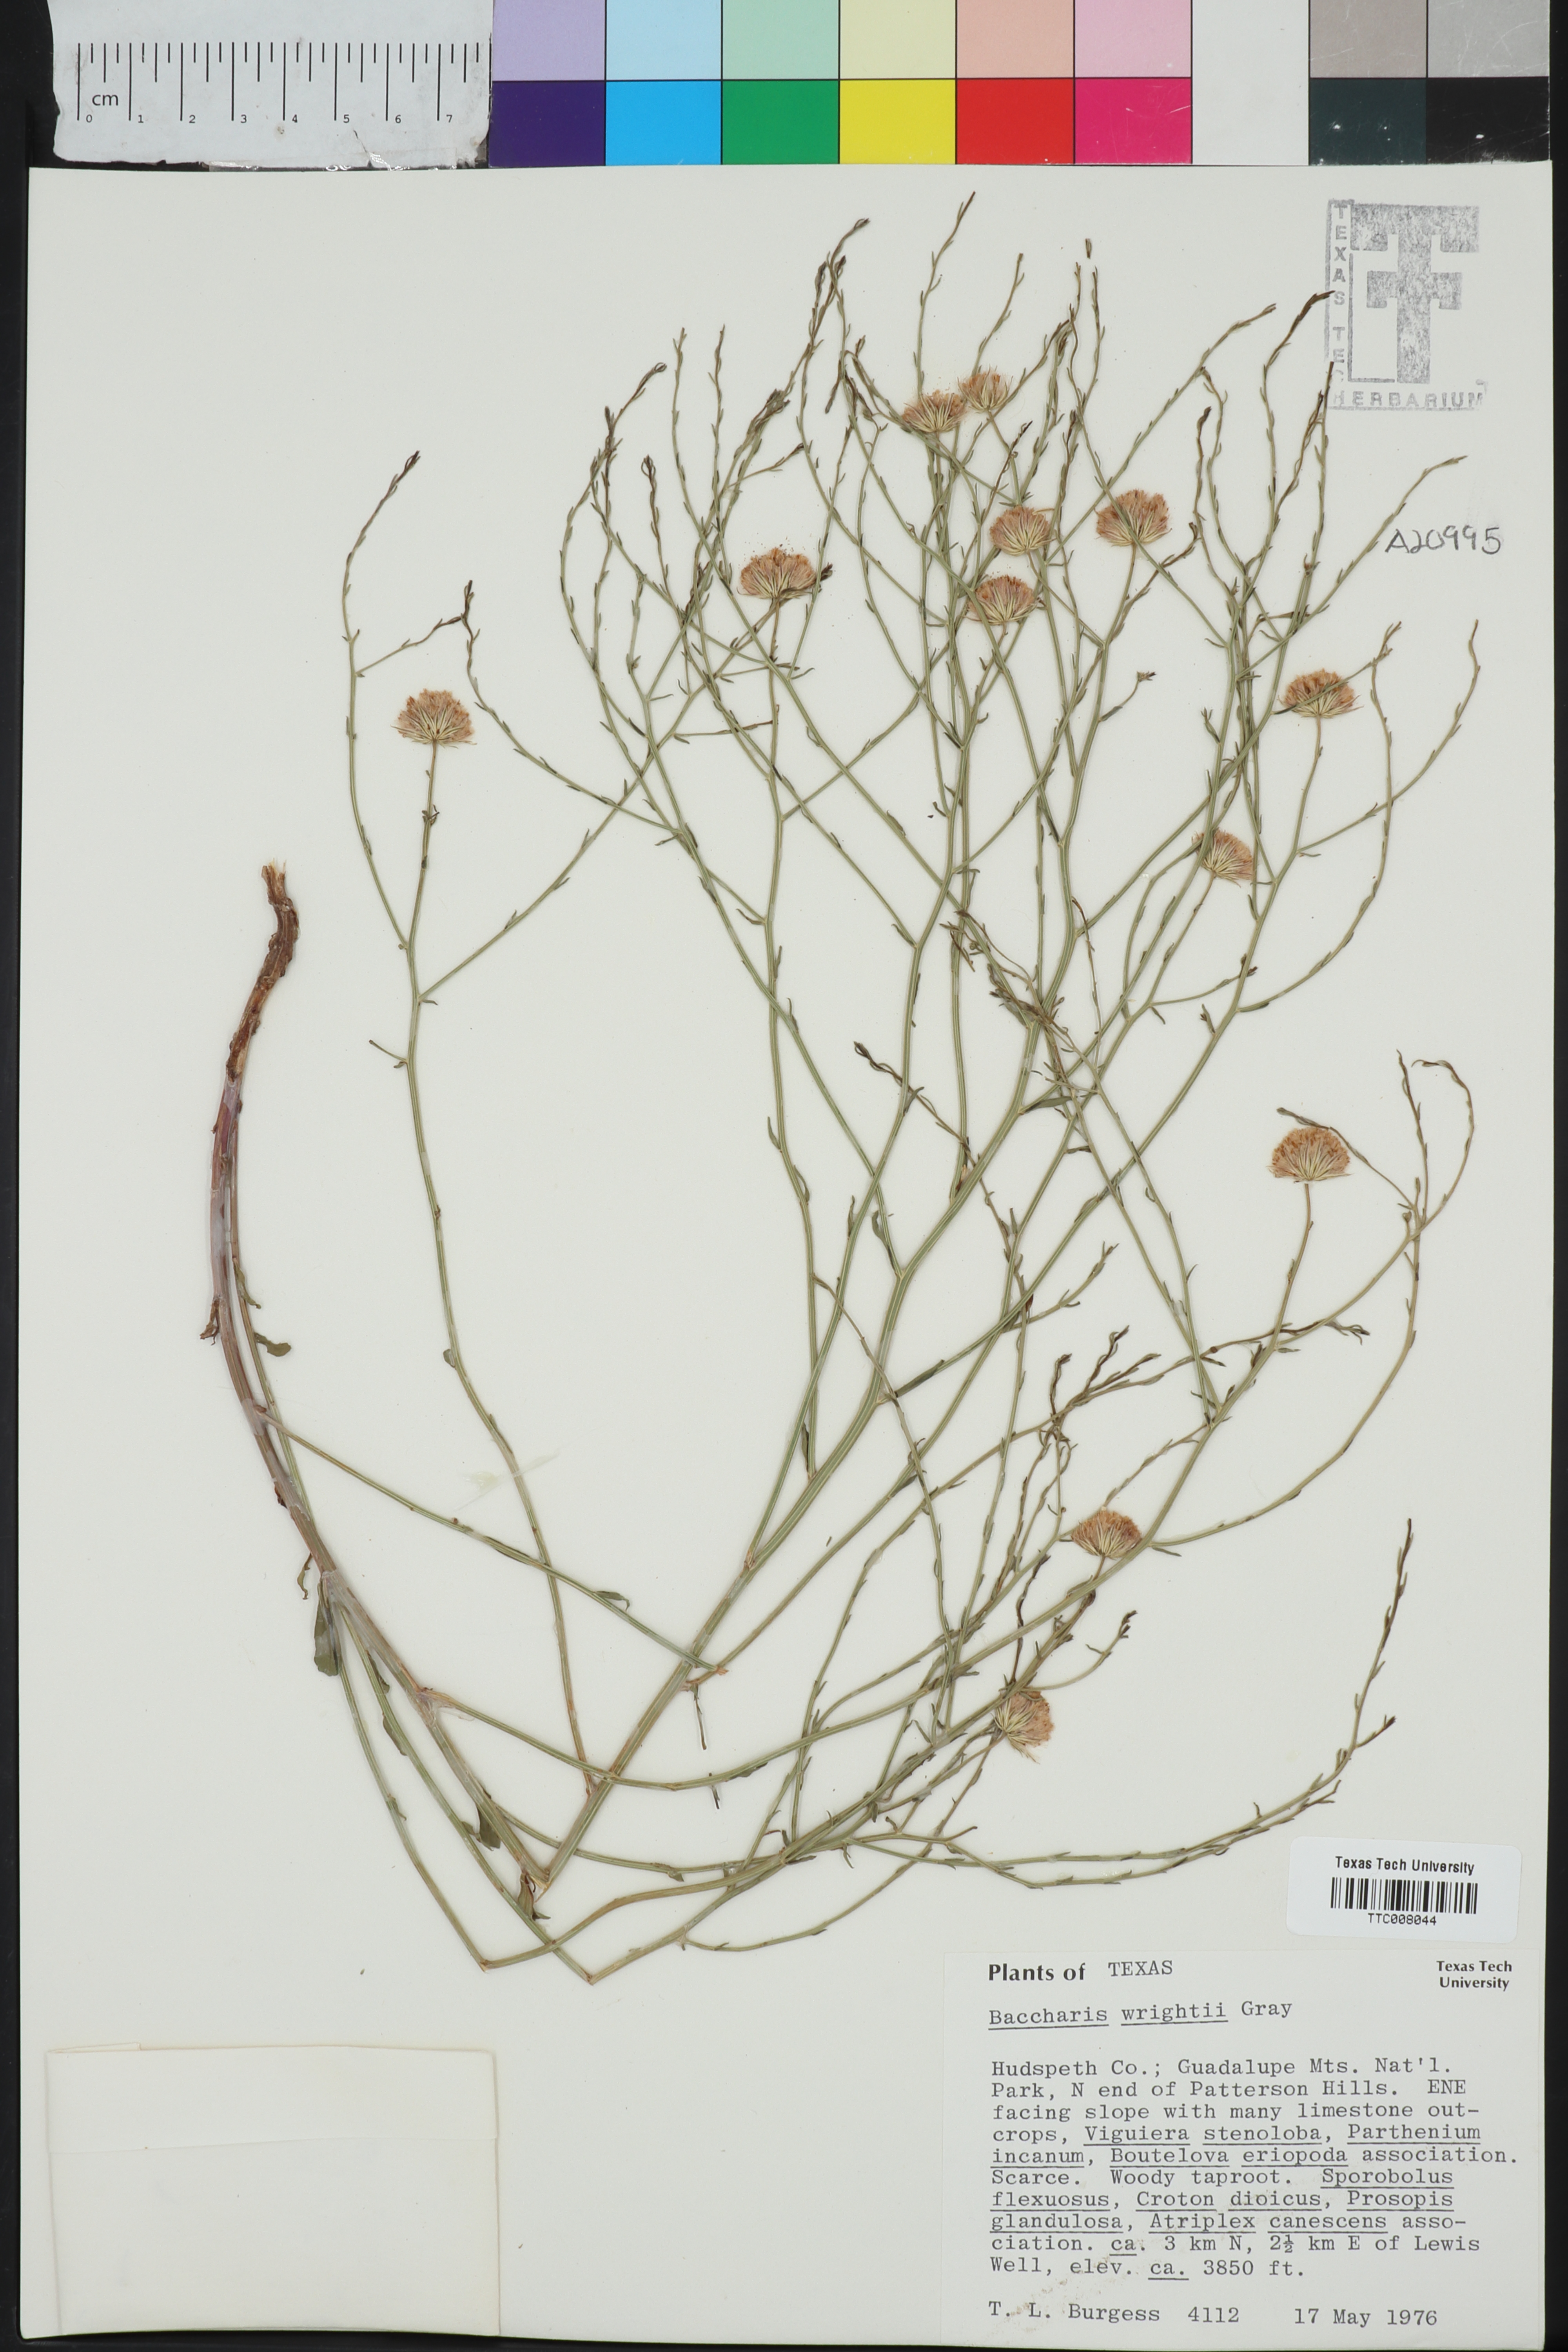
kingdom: Plantae
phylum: Tracheophyta
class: Magnoliopsida
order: Asterales
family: Asteraceae
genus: Baccharis
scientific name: Baccharis wrightii
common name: Wright's baccharis
